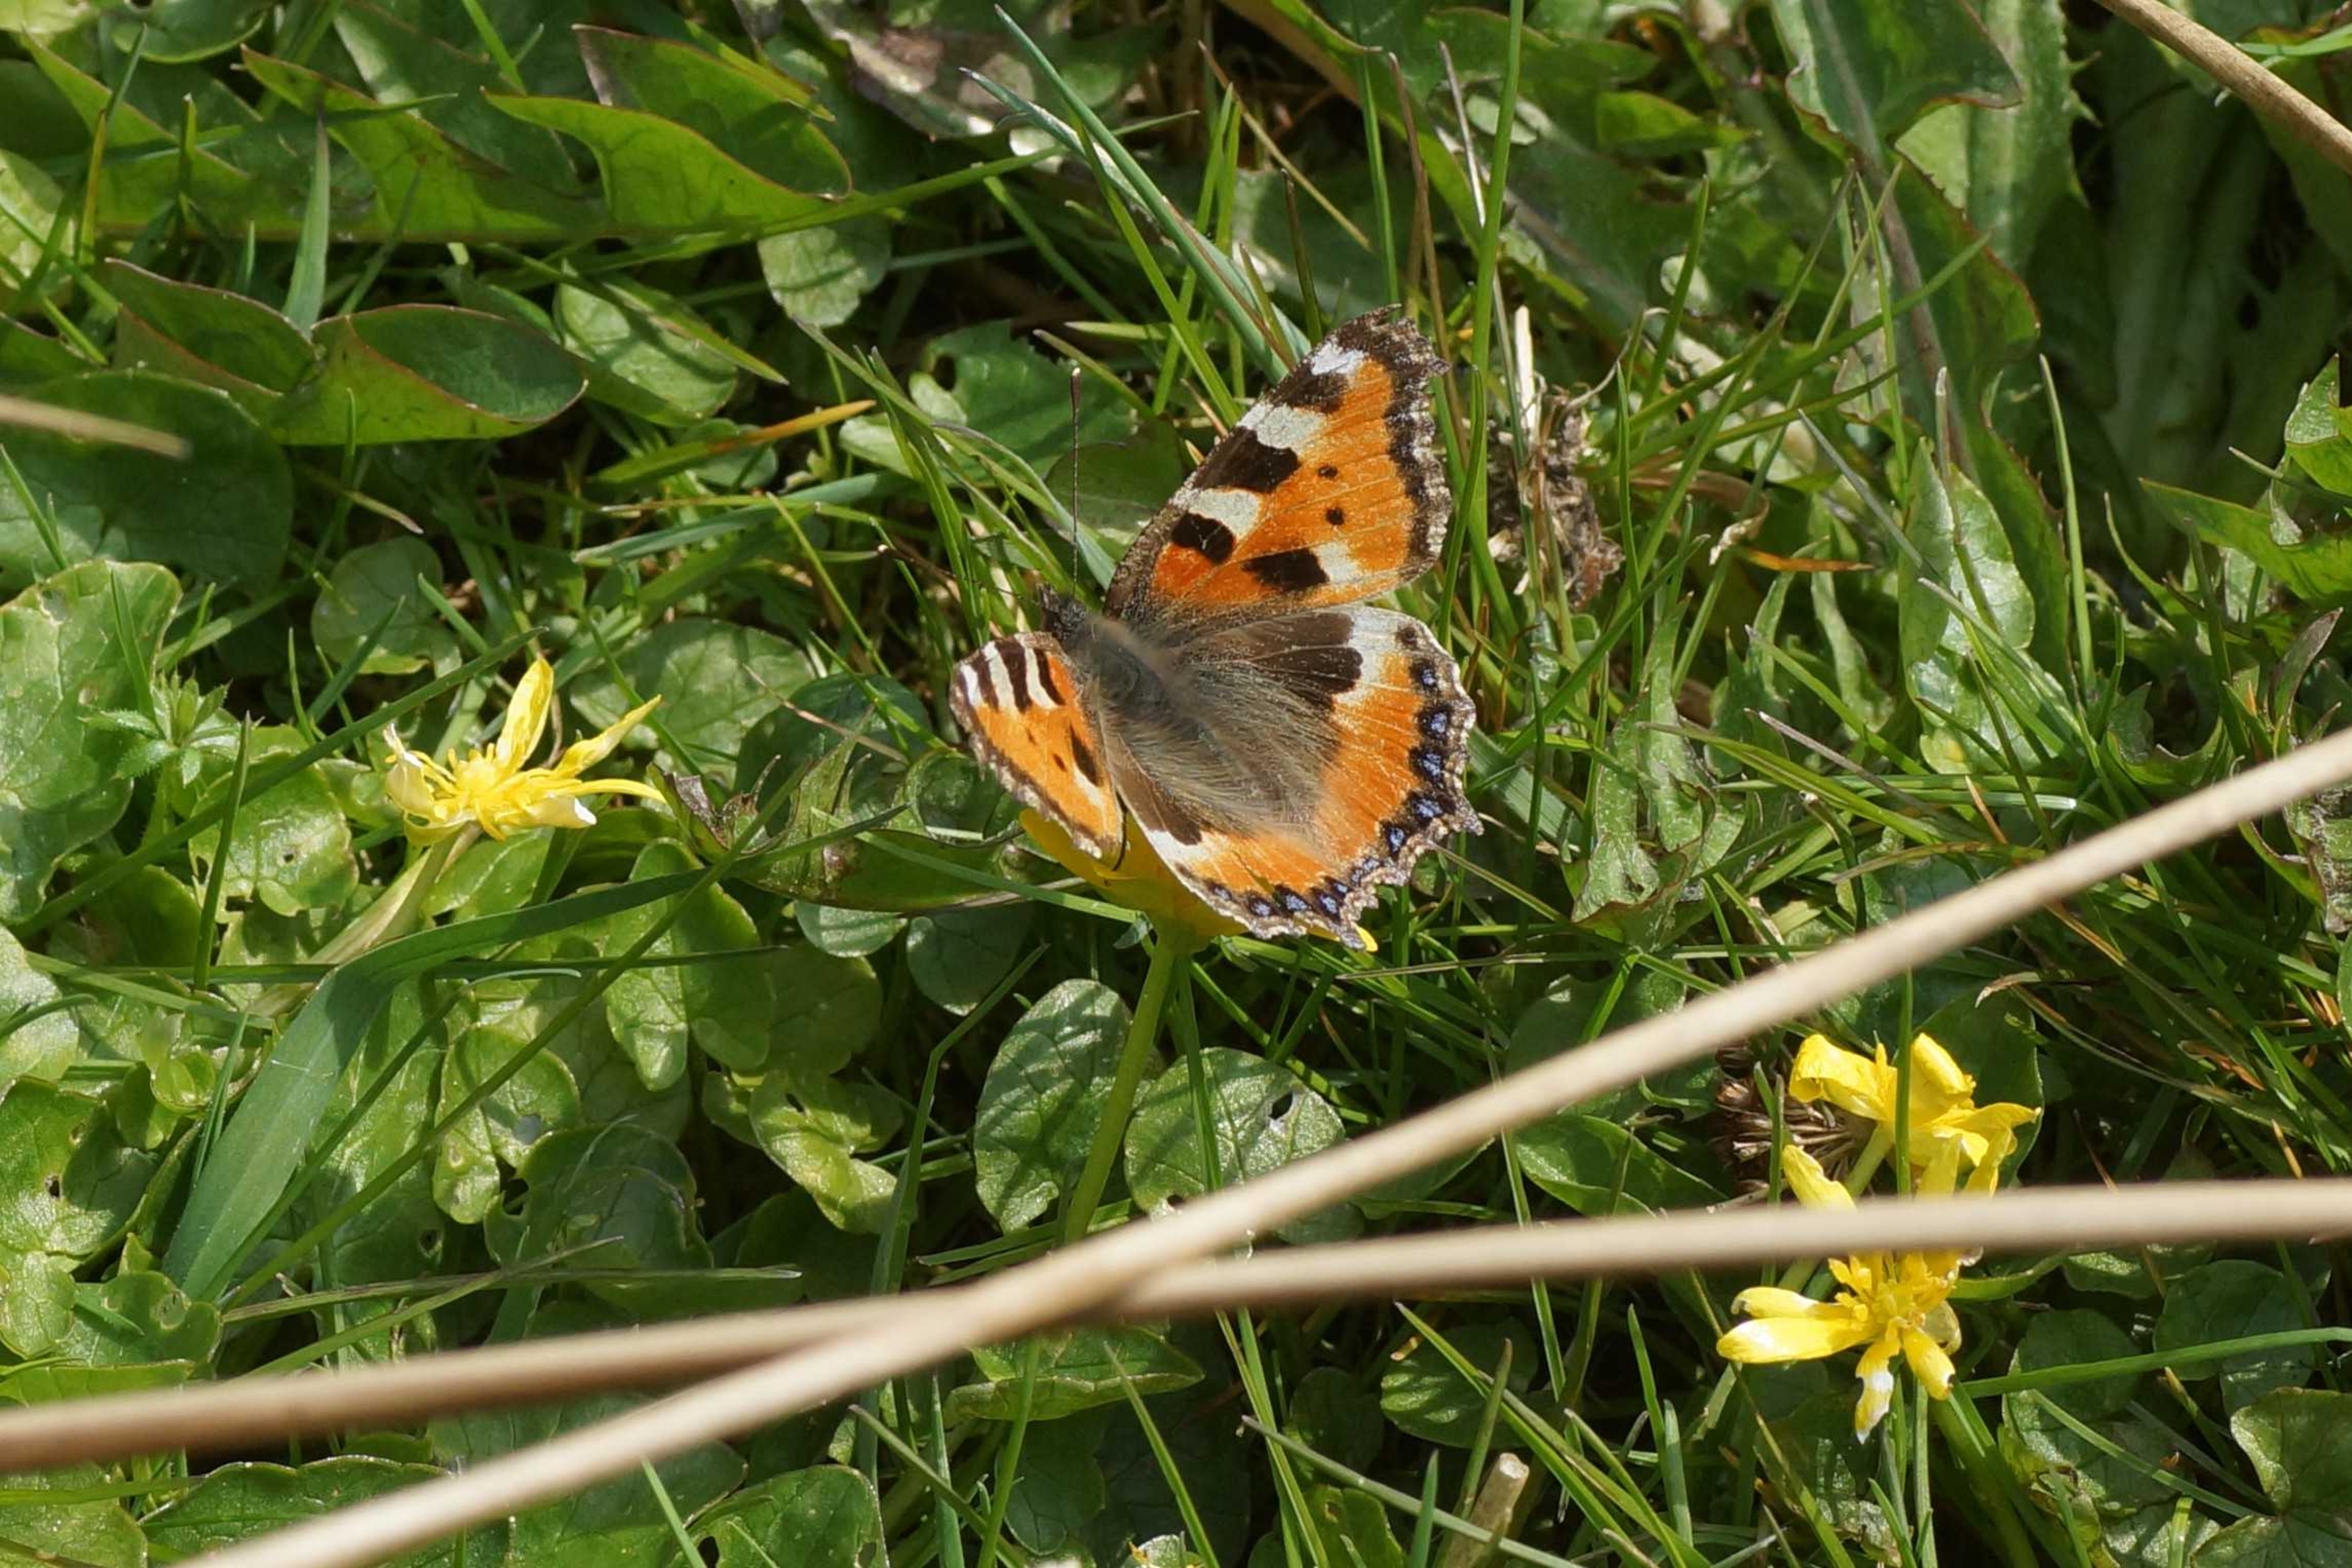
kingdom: Animalia
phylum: Arthropoda
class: Insecta
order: Lepidoptera
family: Nymphalidae
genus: Aglais
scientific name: Aglais urticae
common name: Nældens takvinge
